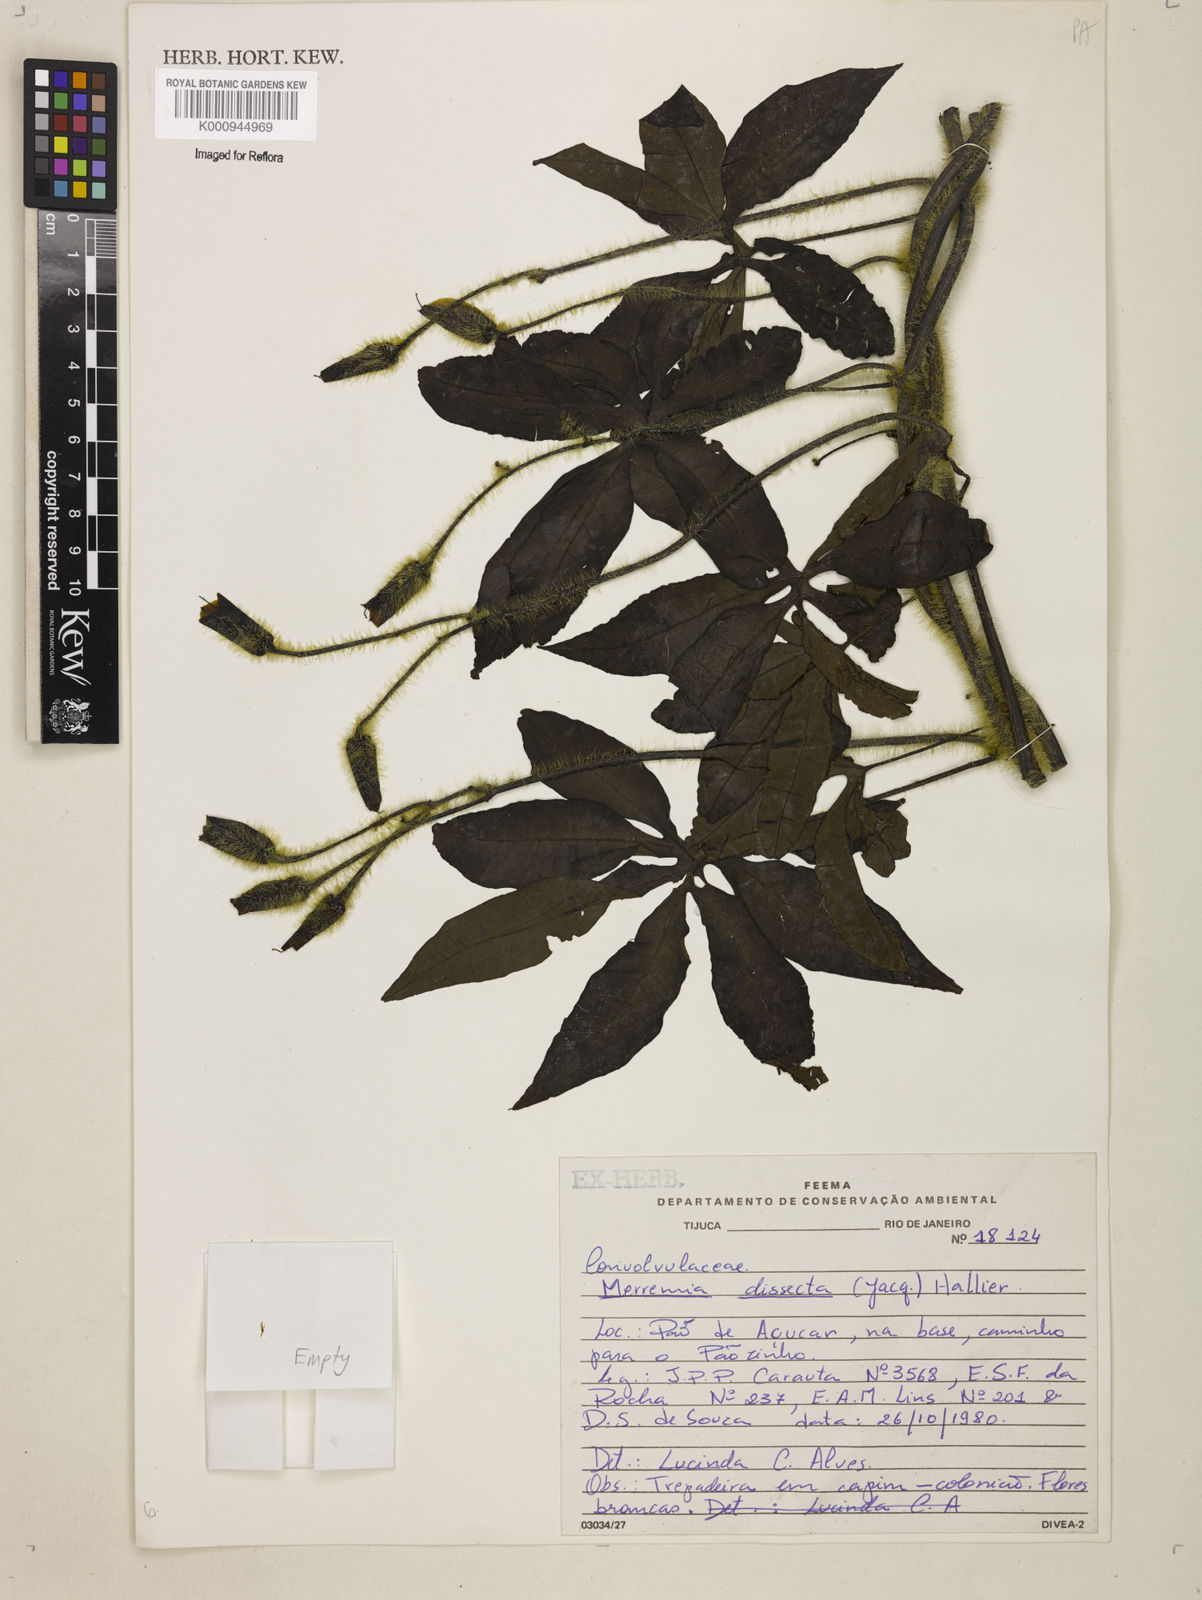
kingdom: Plantae
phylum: Tracheophyta
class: Magnoliopsida
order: Solanales
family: Convolvulaceae
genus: Distimake
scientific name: Distimake dissectus
